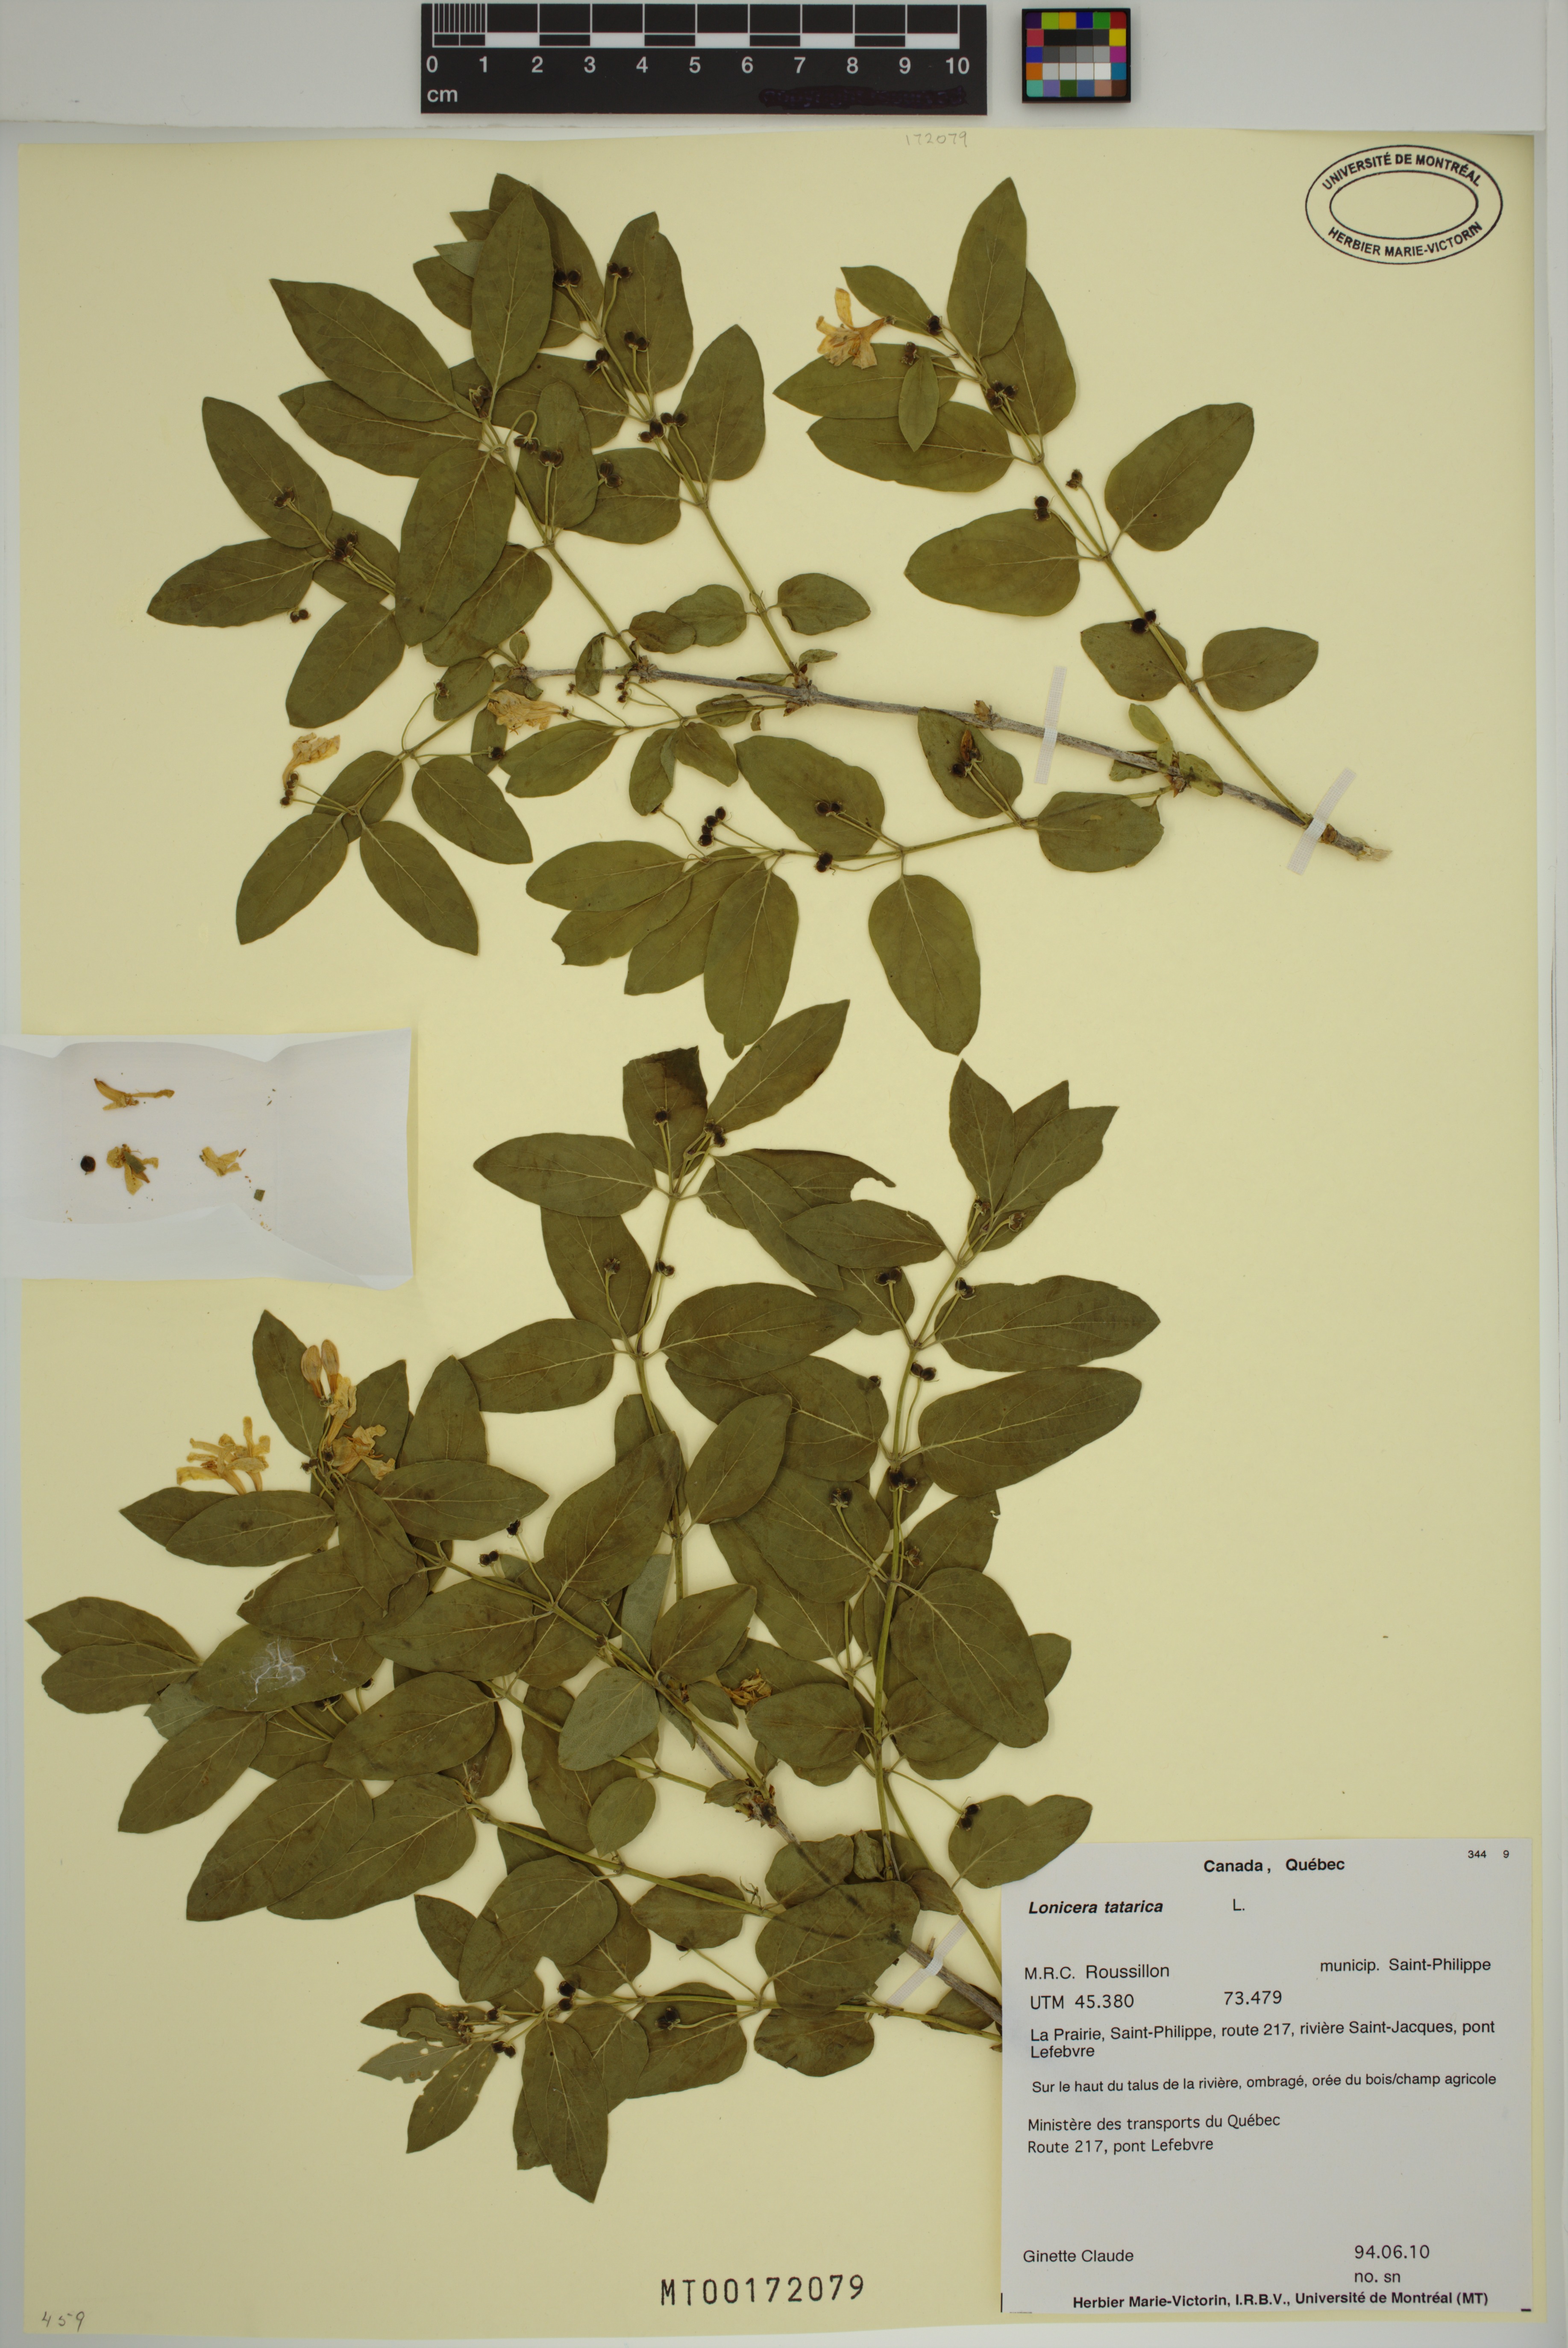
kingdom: Plantae
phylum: Tracheophyta
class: Magnoliopsida
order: Dipsacales
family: Caprifoliaceae
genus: Lonicera
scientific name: Lonicera tatarica
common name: Tatarian honeysuckle
